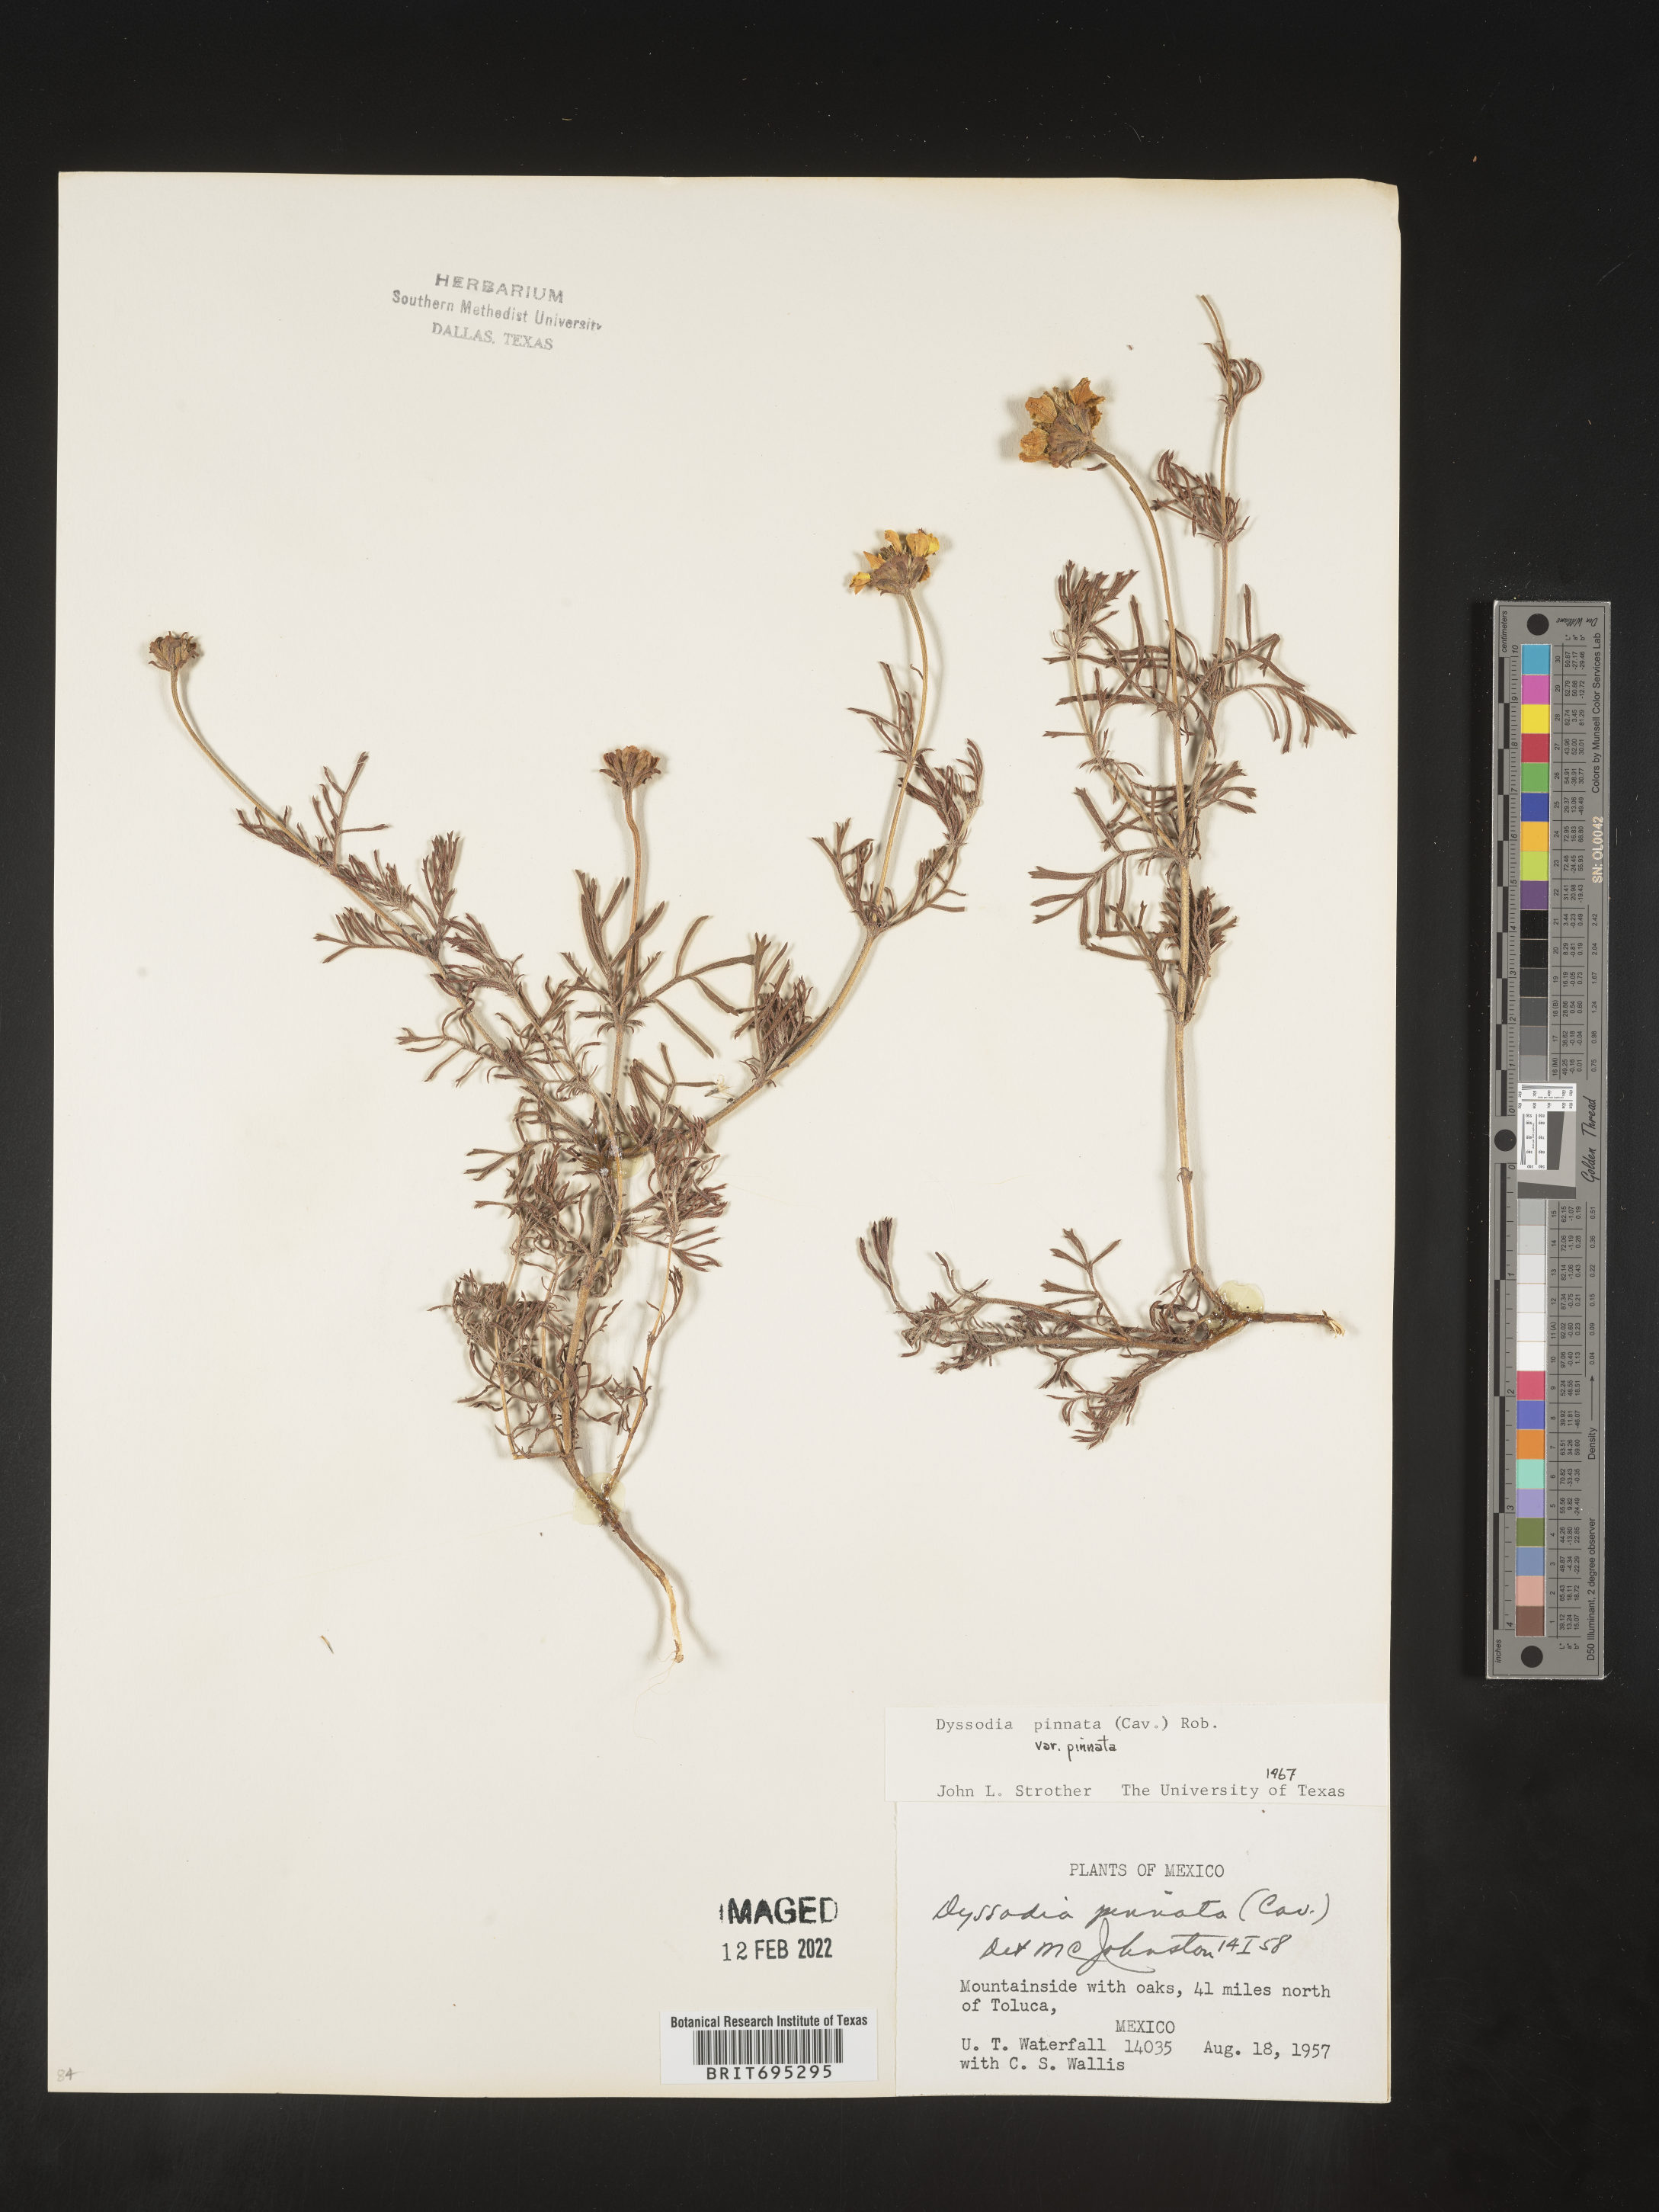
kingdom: Plantae
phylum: Tracheophyta
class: Magnoliopsida
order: Asterales
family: Asteraceae
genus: Dyssodia
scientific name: Dyssodia
